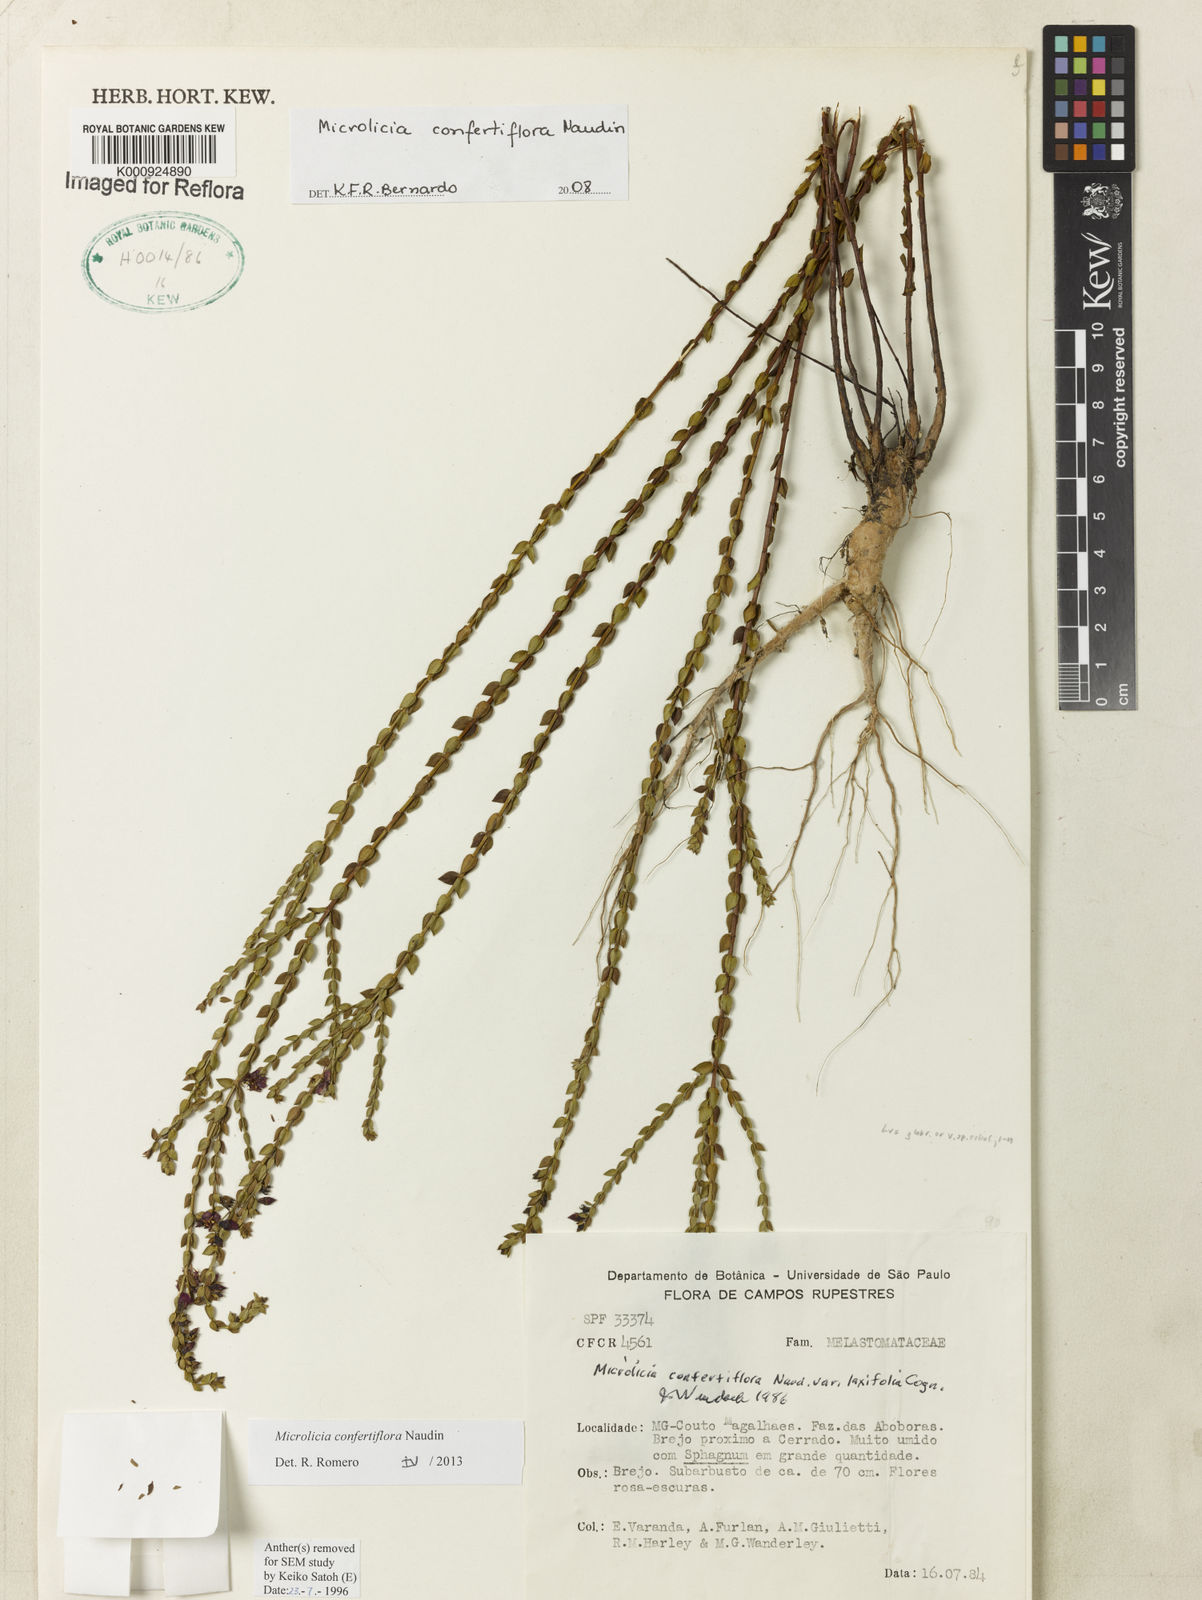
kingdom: Plantae
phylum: Tracheophyta
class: Magnoliopsida
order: Myrtales
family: Melastomataceae
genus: Microlicia
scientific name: Microlicia confertiflora
